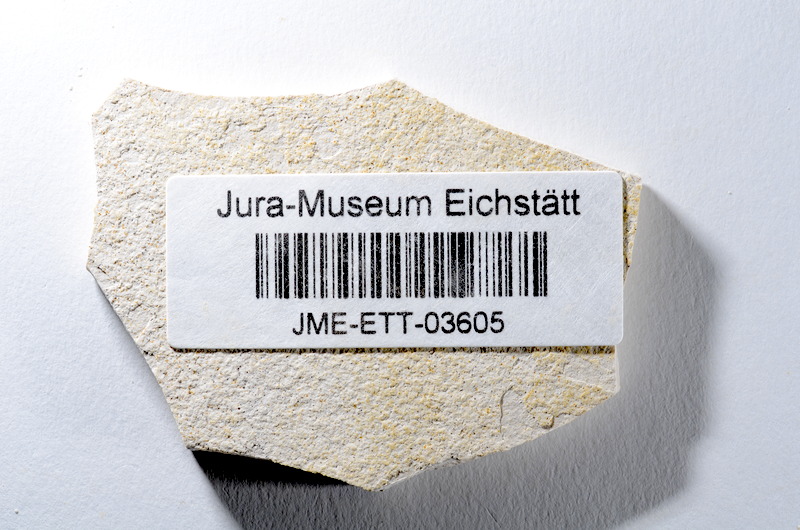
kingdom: Animalia
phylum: Chordata
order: Salmoniformes
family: Orthogonikleithridae
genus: Orthogonikleithrus
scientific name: Orthogonikleithrus hoelli
